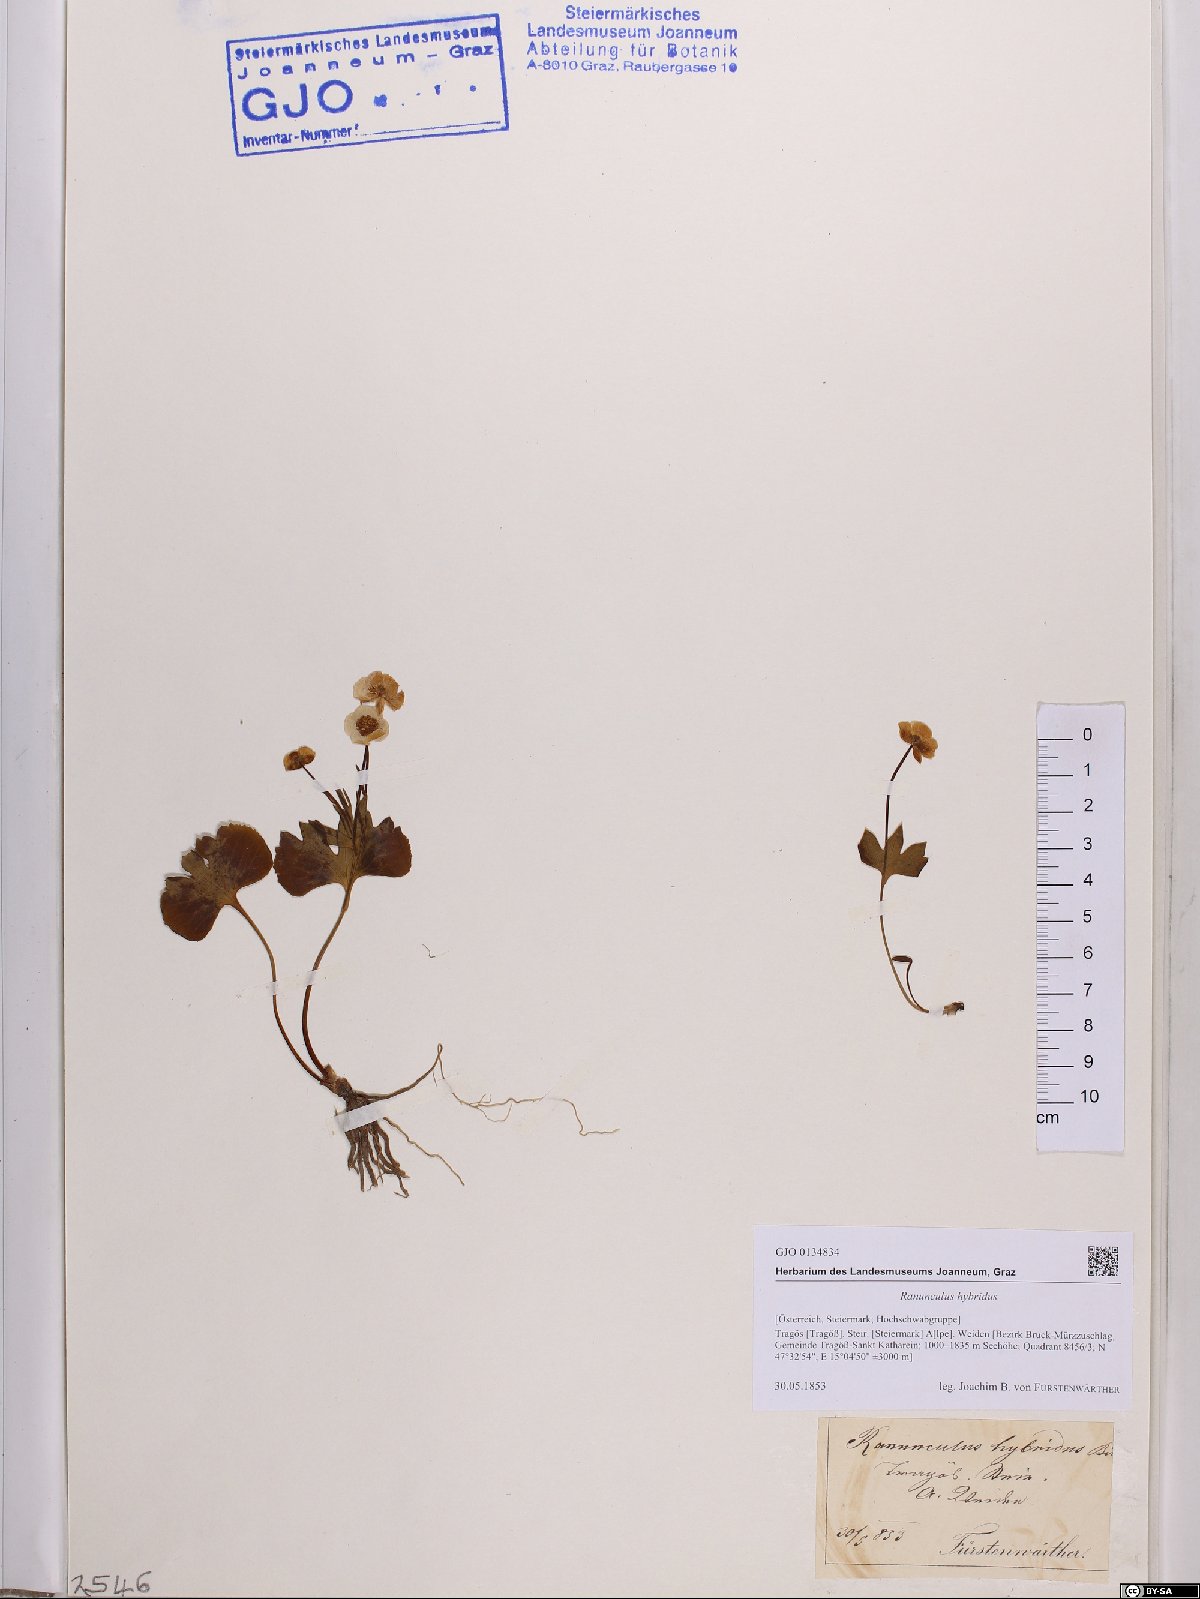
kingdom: Plantae
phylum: Tracheophyta
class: Magnoliopsida
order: Ranunculales
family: Ranunculaceae
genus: Ranunculus
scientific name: Ranunculus hybridus
